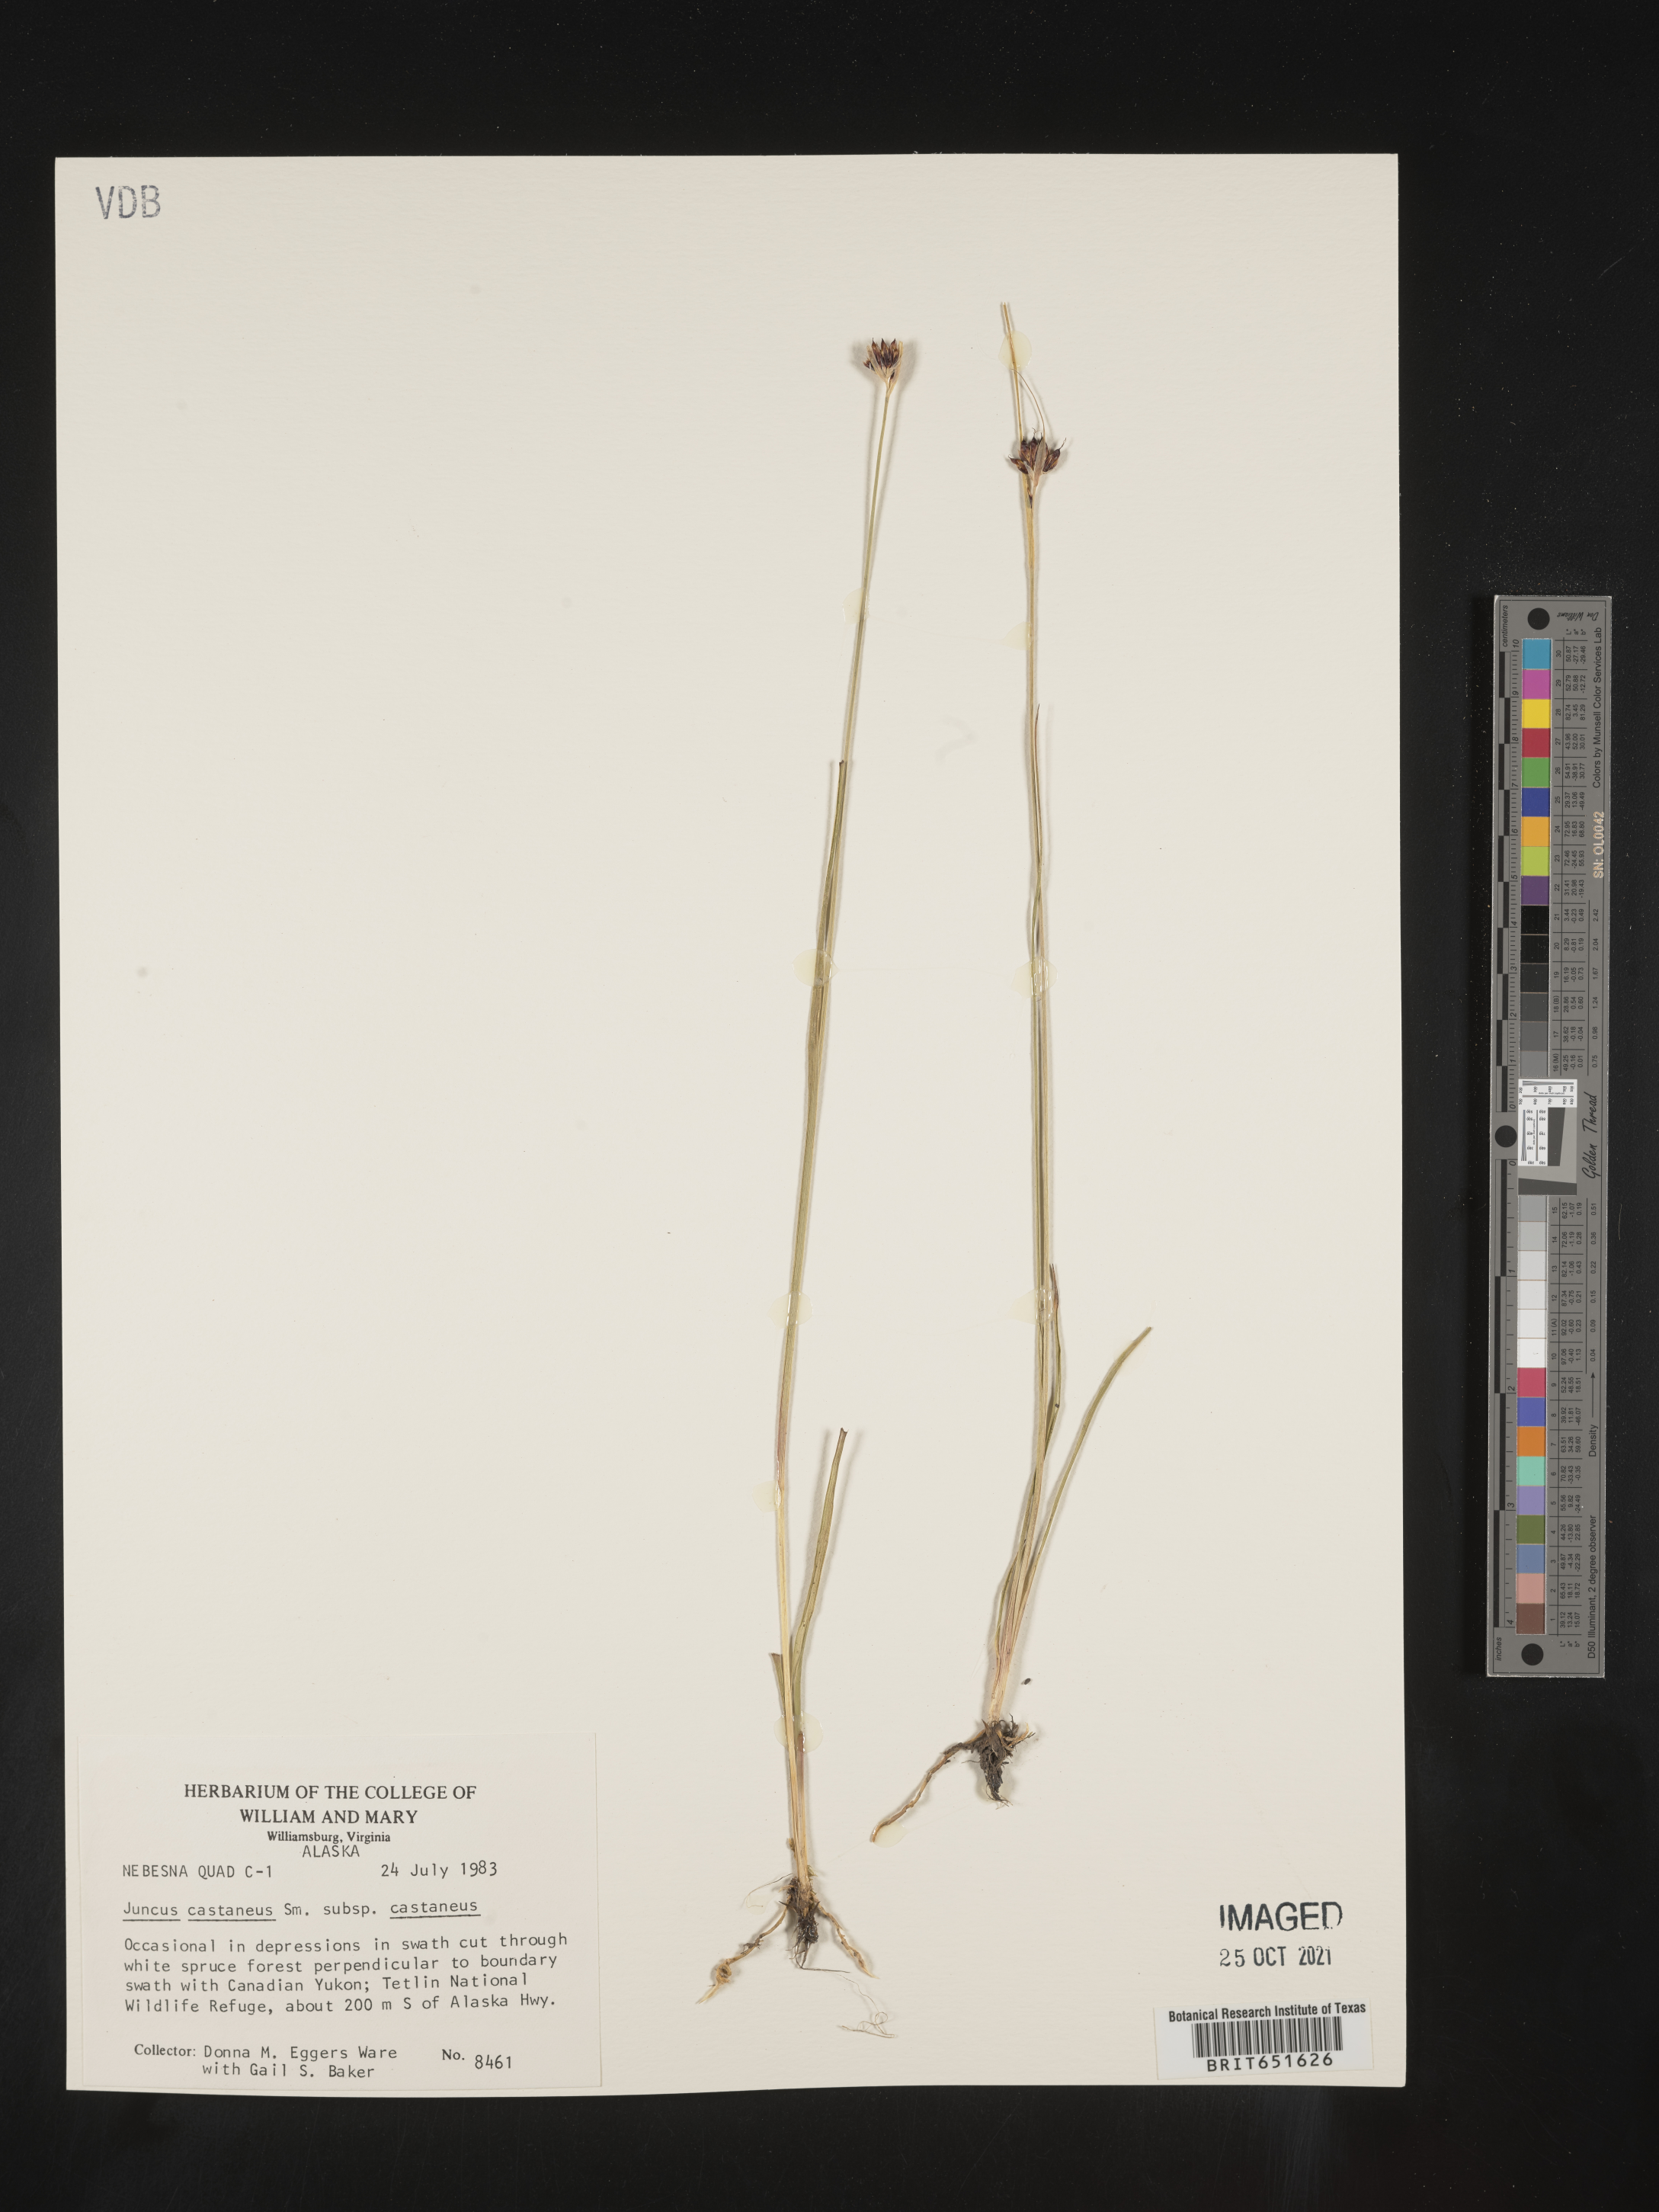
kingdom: Plantae
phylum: Tracheophyta
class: Liliopsida
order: Poales
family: Juncaceae
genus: Juncus
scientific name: Juncus castaneus
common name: Chestnut rush
